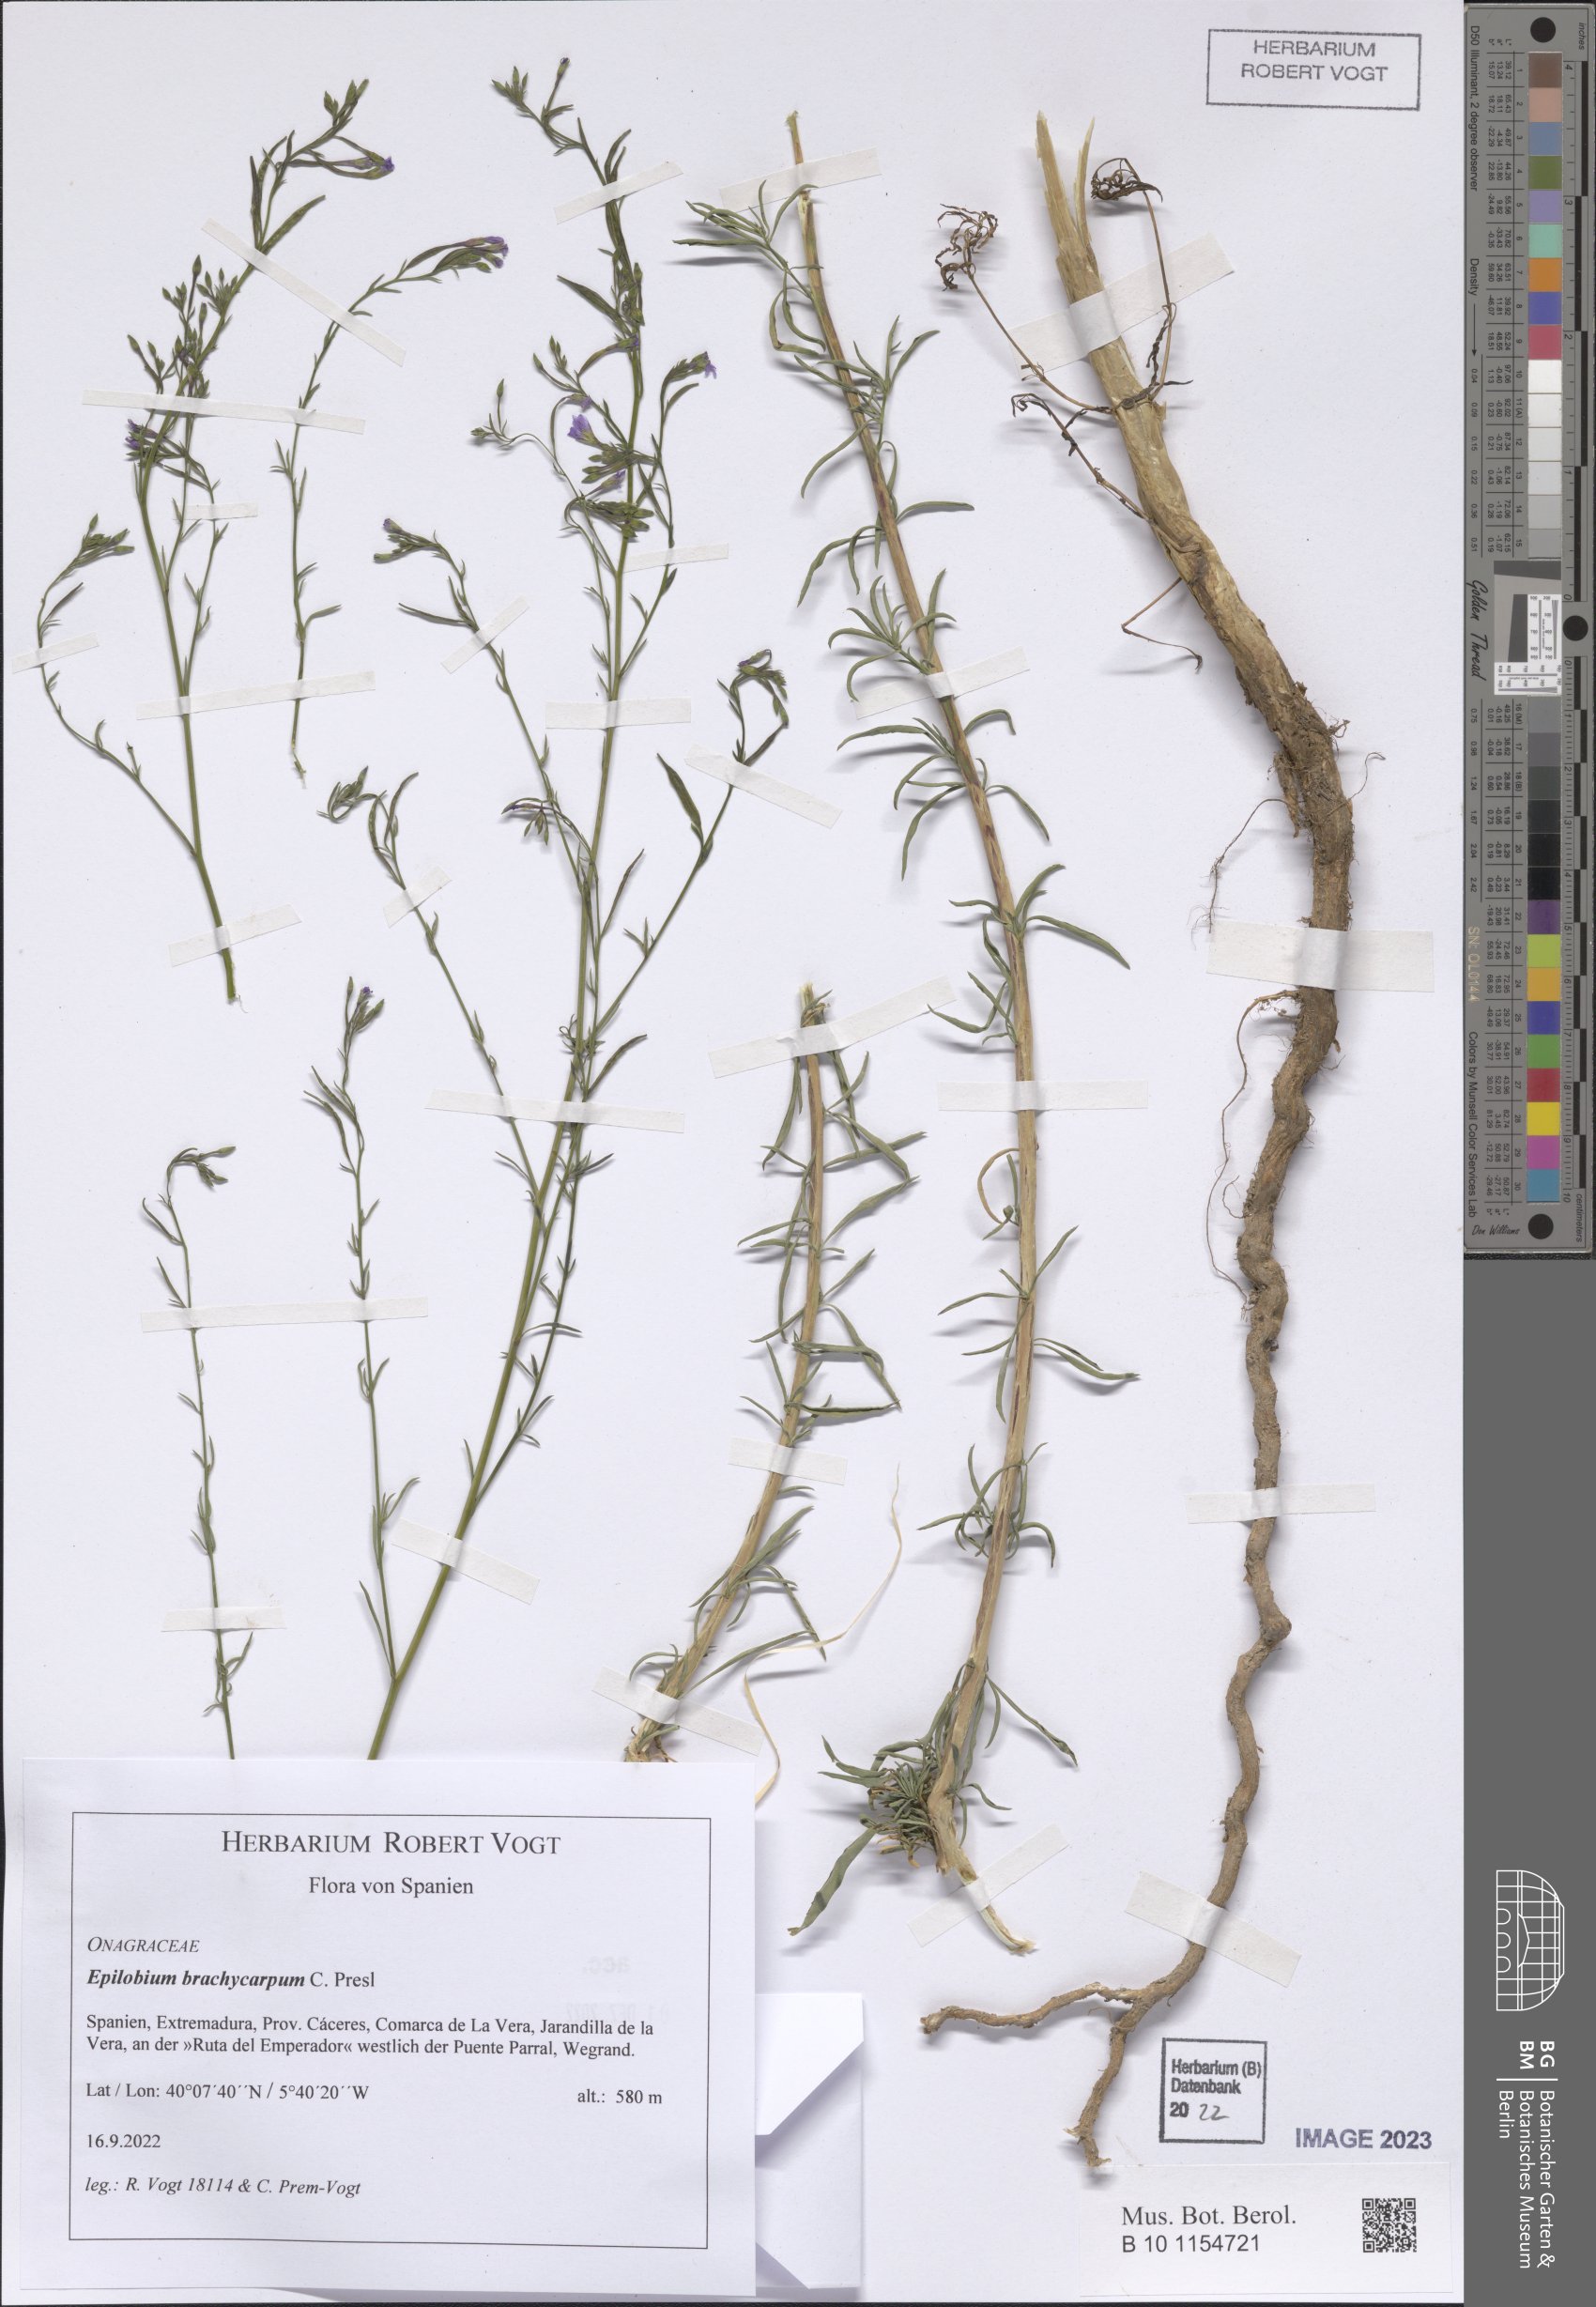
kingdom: Plantae
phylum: Tracheophyta
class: Magnoliopsida
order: Myrtales
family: Onagraceae
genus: Epilobium
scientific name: Epilobium brachycarpum
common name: Annual willowherb
